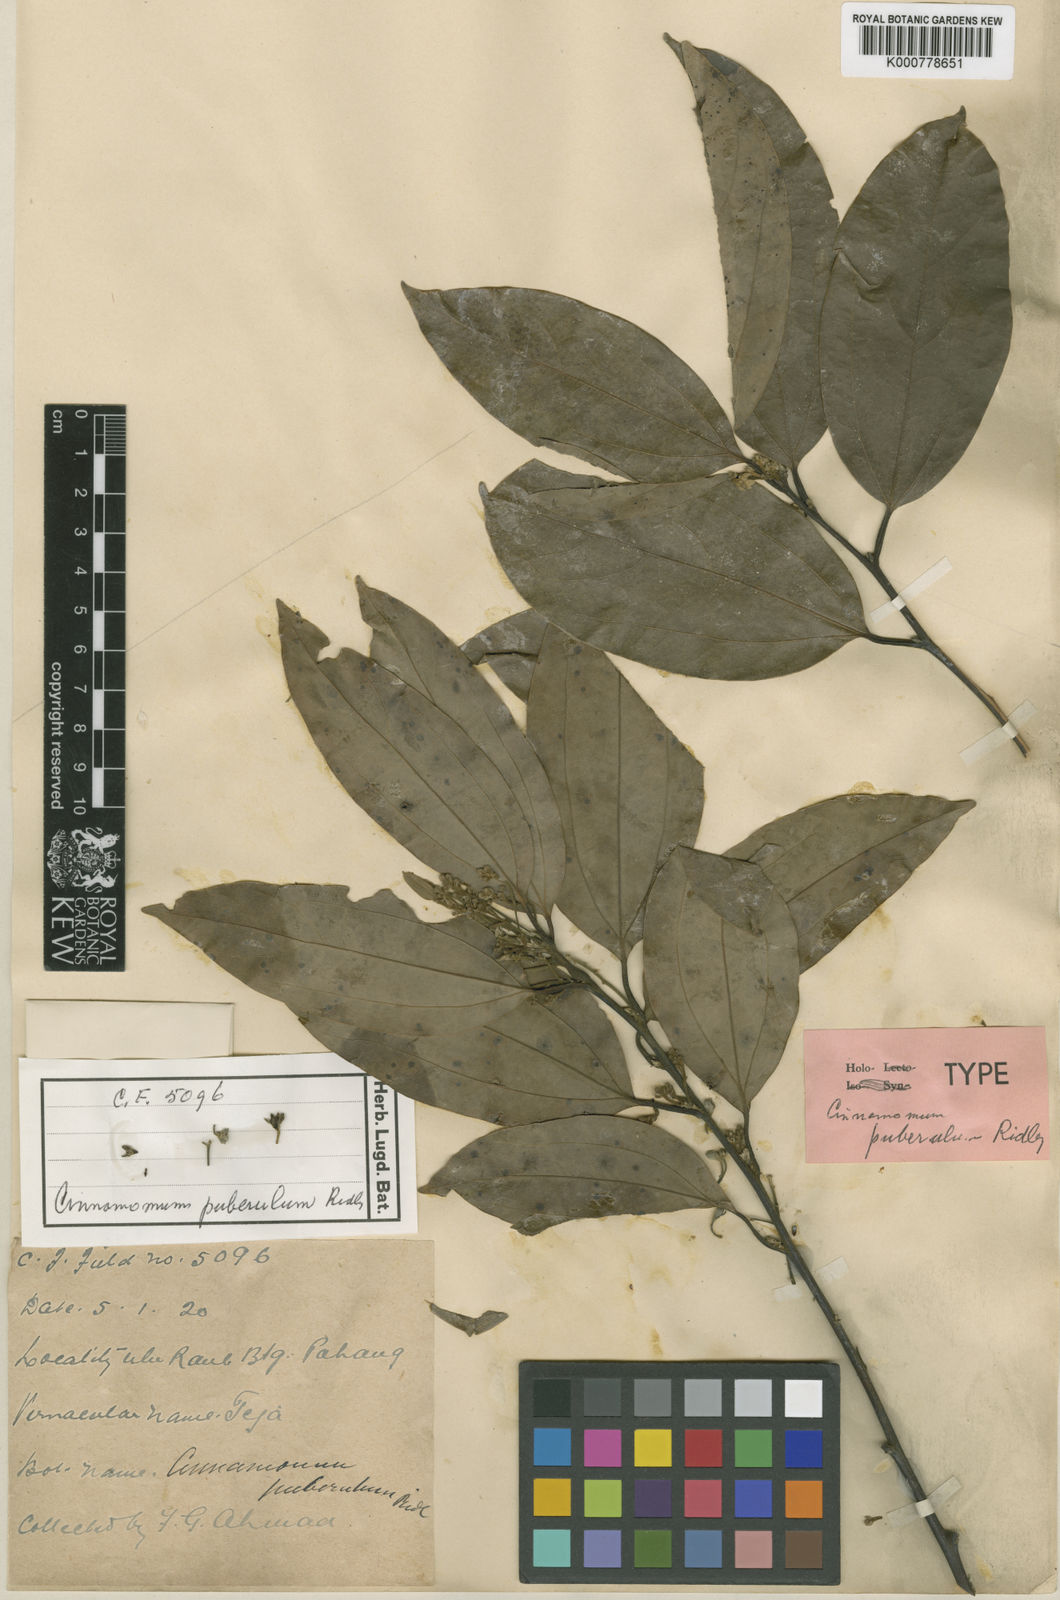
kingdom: Plantae
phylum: Tracheophyta
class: Magnoliopsida
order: Laurales
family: Lauraceae
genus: Cinnamomum
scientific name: Cinnamomum puberulum
